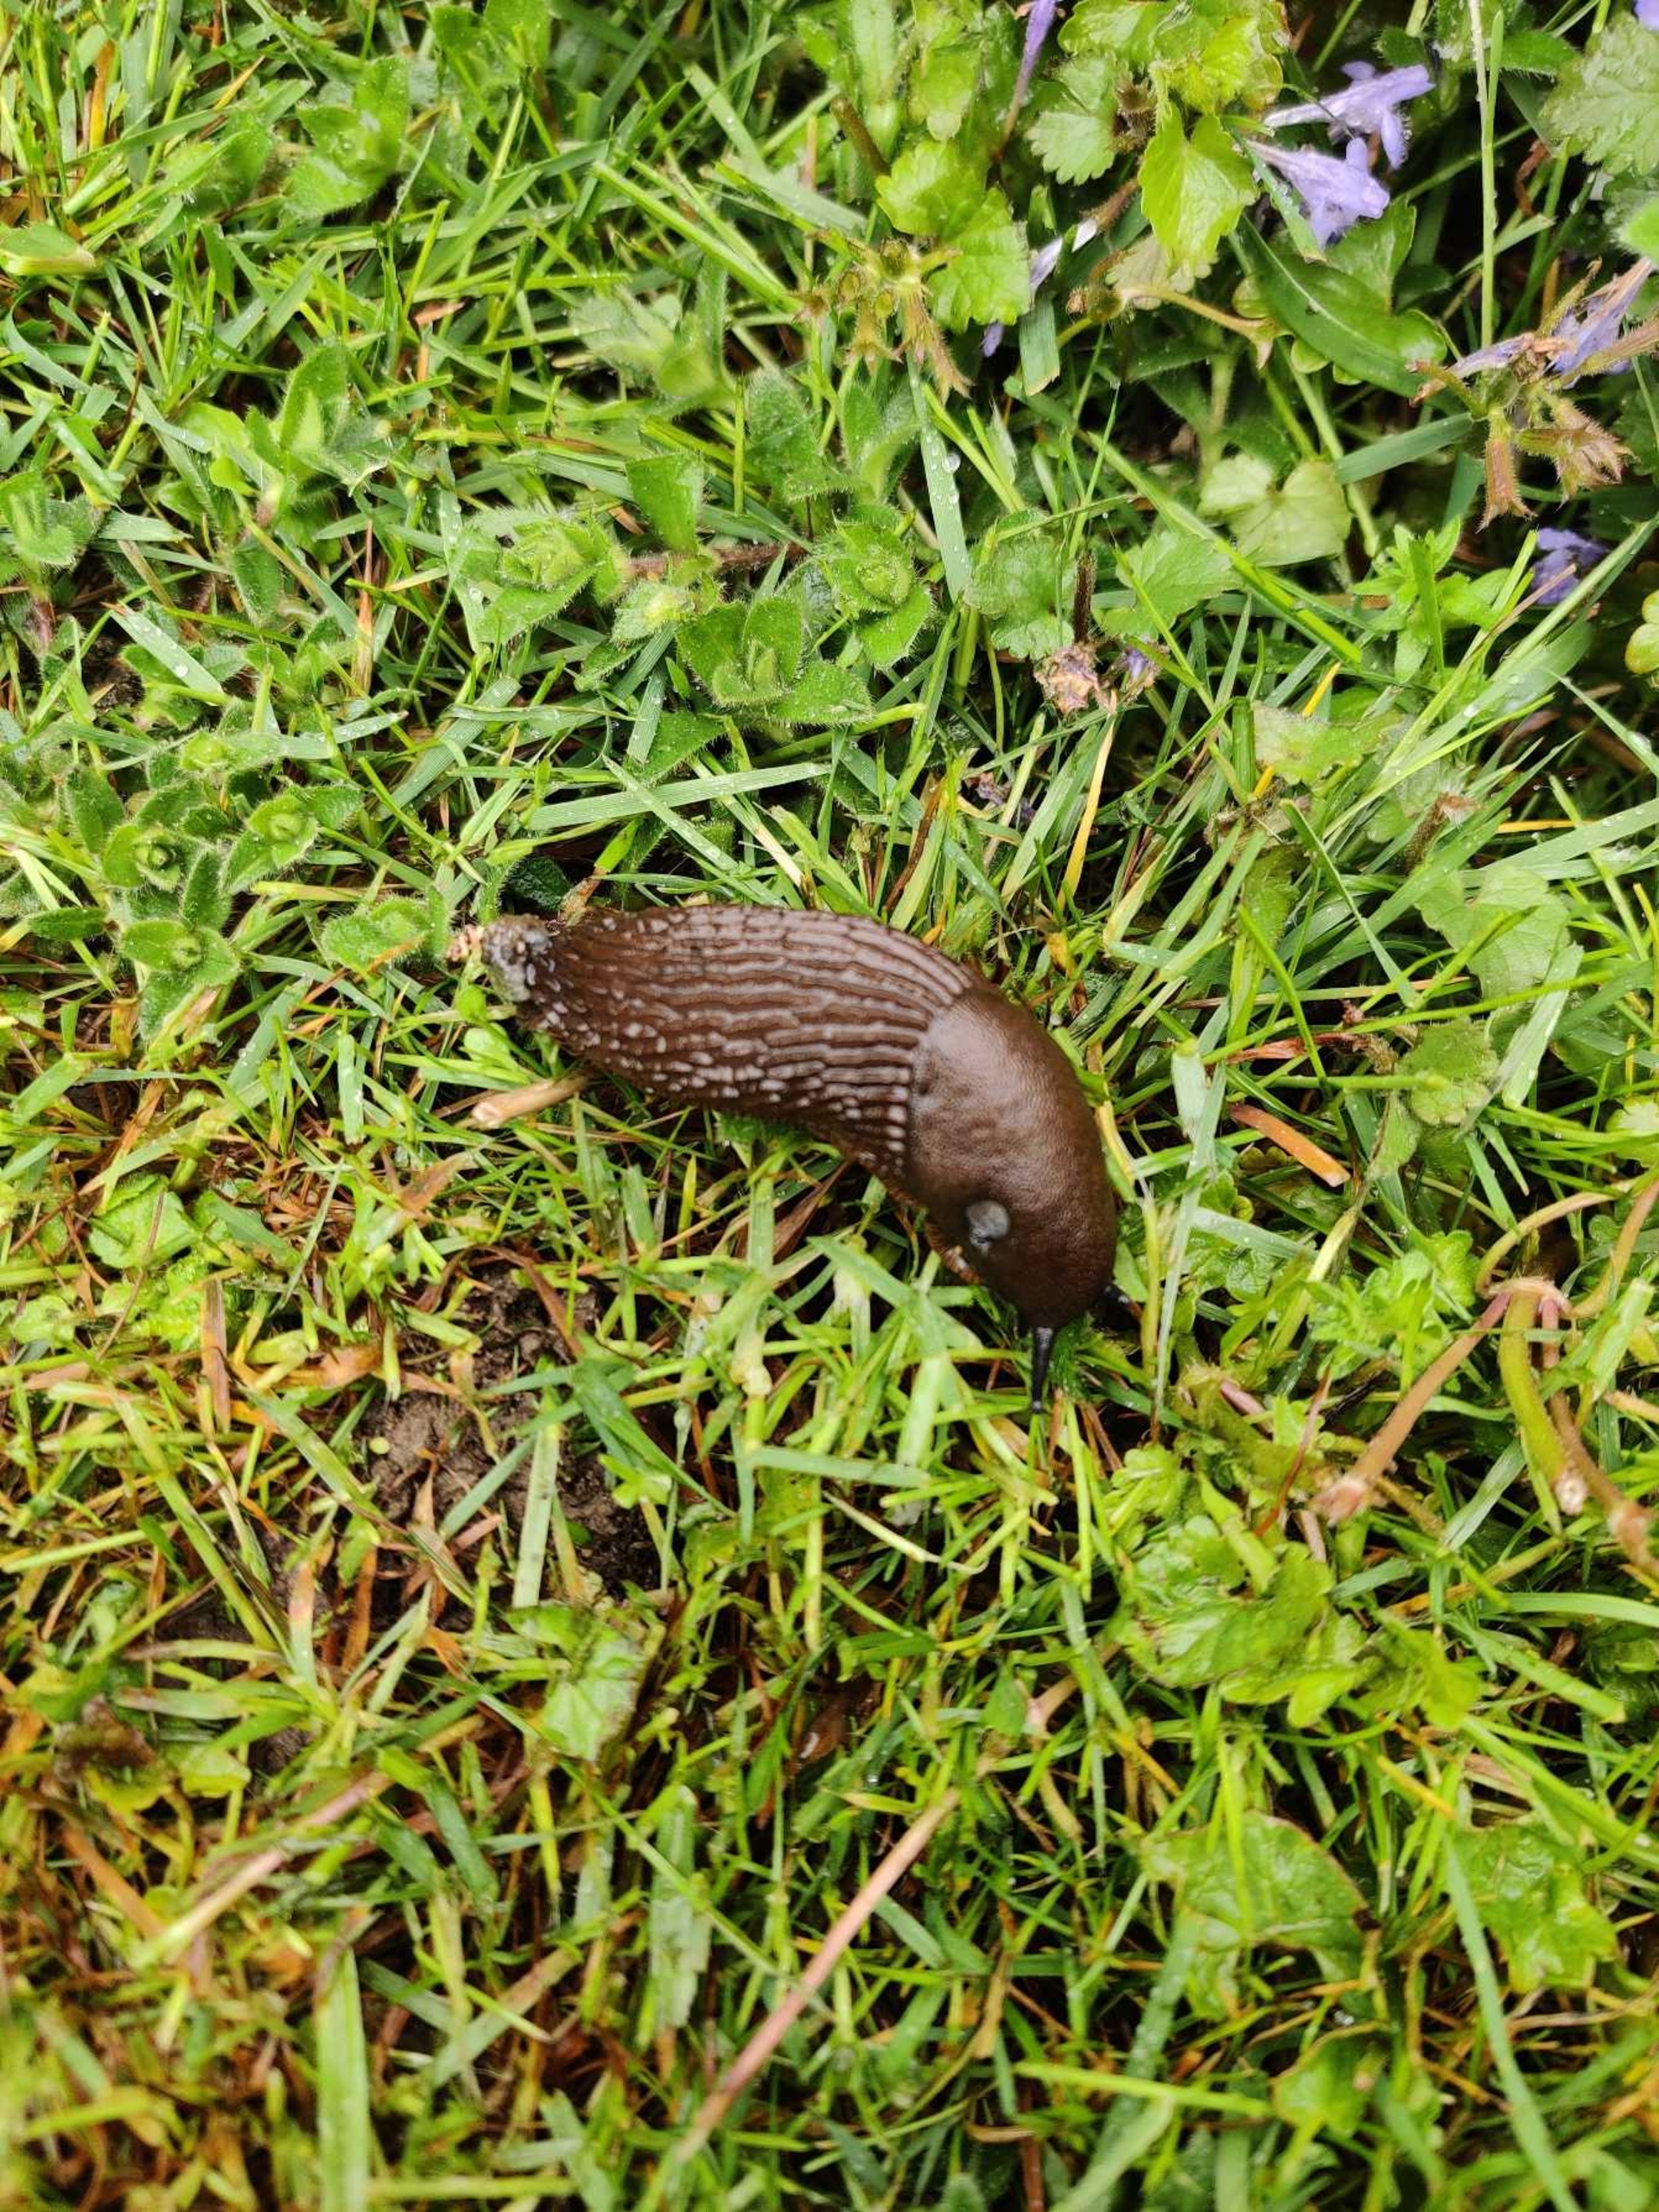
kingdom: Animalia
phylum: Mollusca
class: Gastropoda
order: Stylommatophora
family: Arionidae
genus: Arion
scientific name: Arion vulgaris
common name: Iberisk skovsnegl
